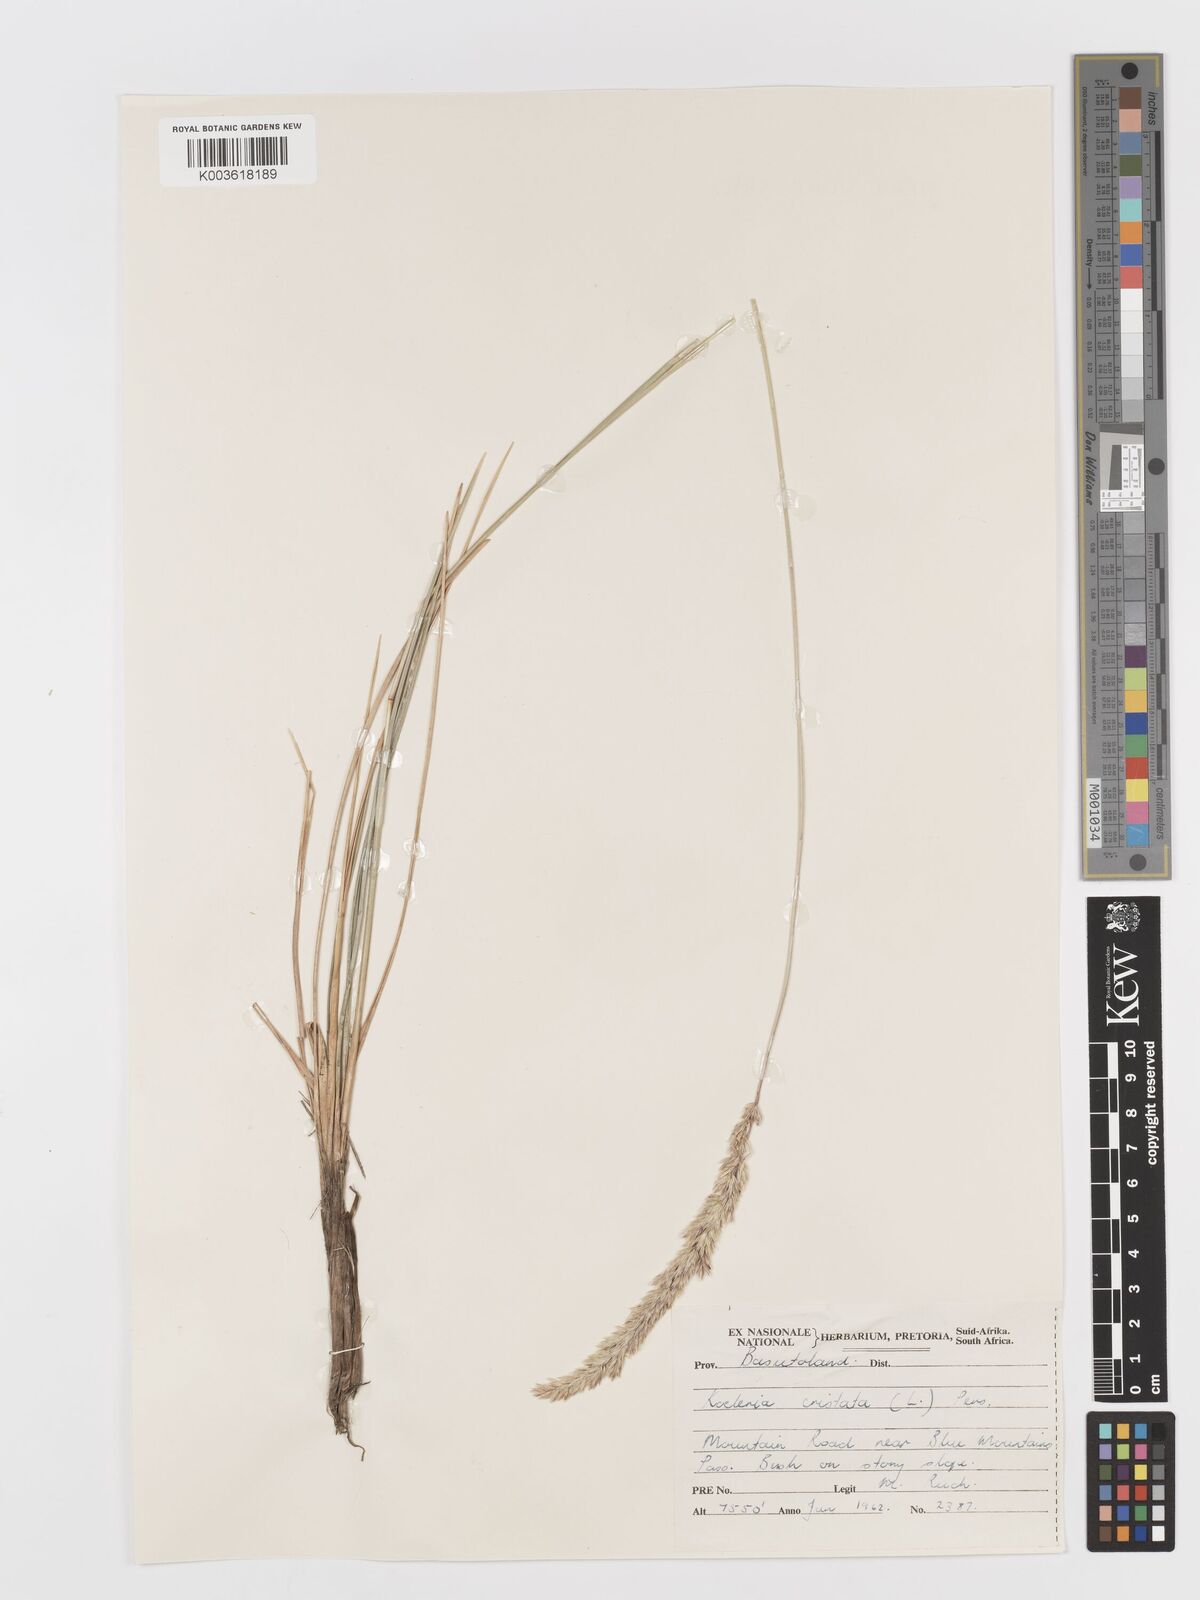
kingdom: Plantae
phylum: Tracheophyta
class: Liliopsida
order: Poales
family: Poaceae
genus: Koeleria
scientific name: Koeleria capensis
